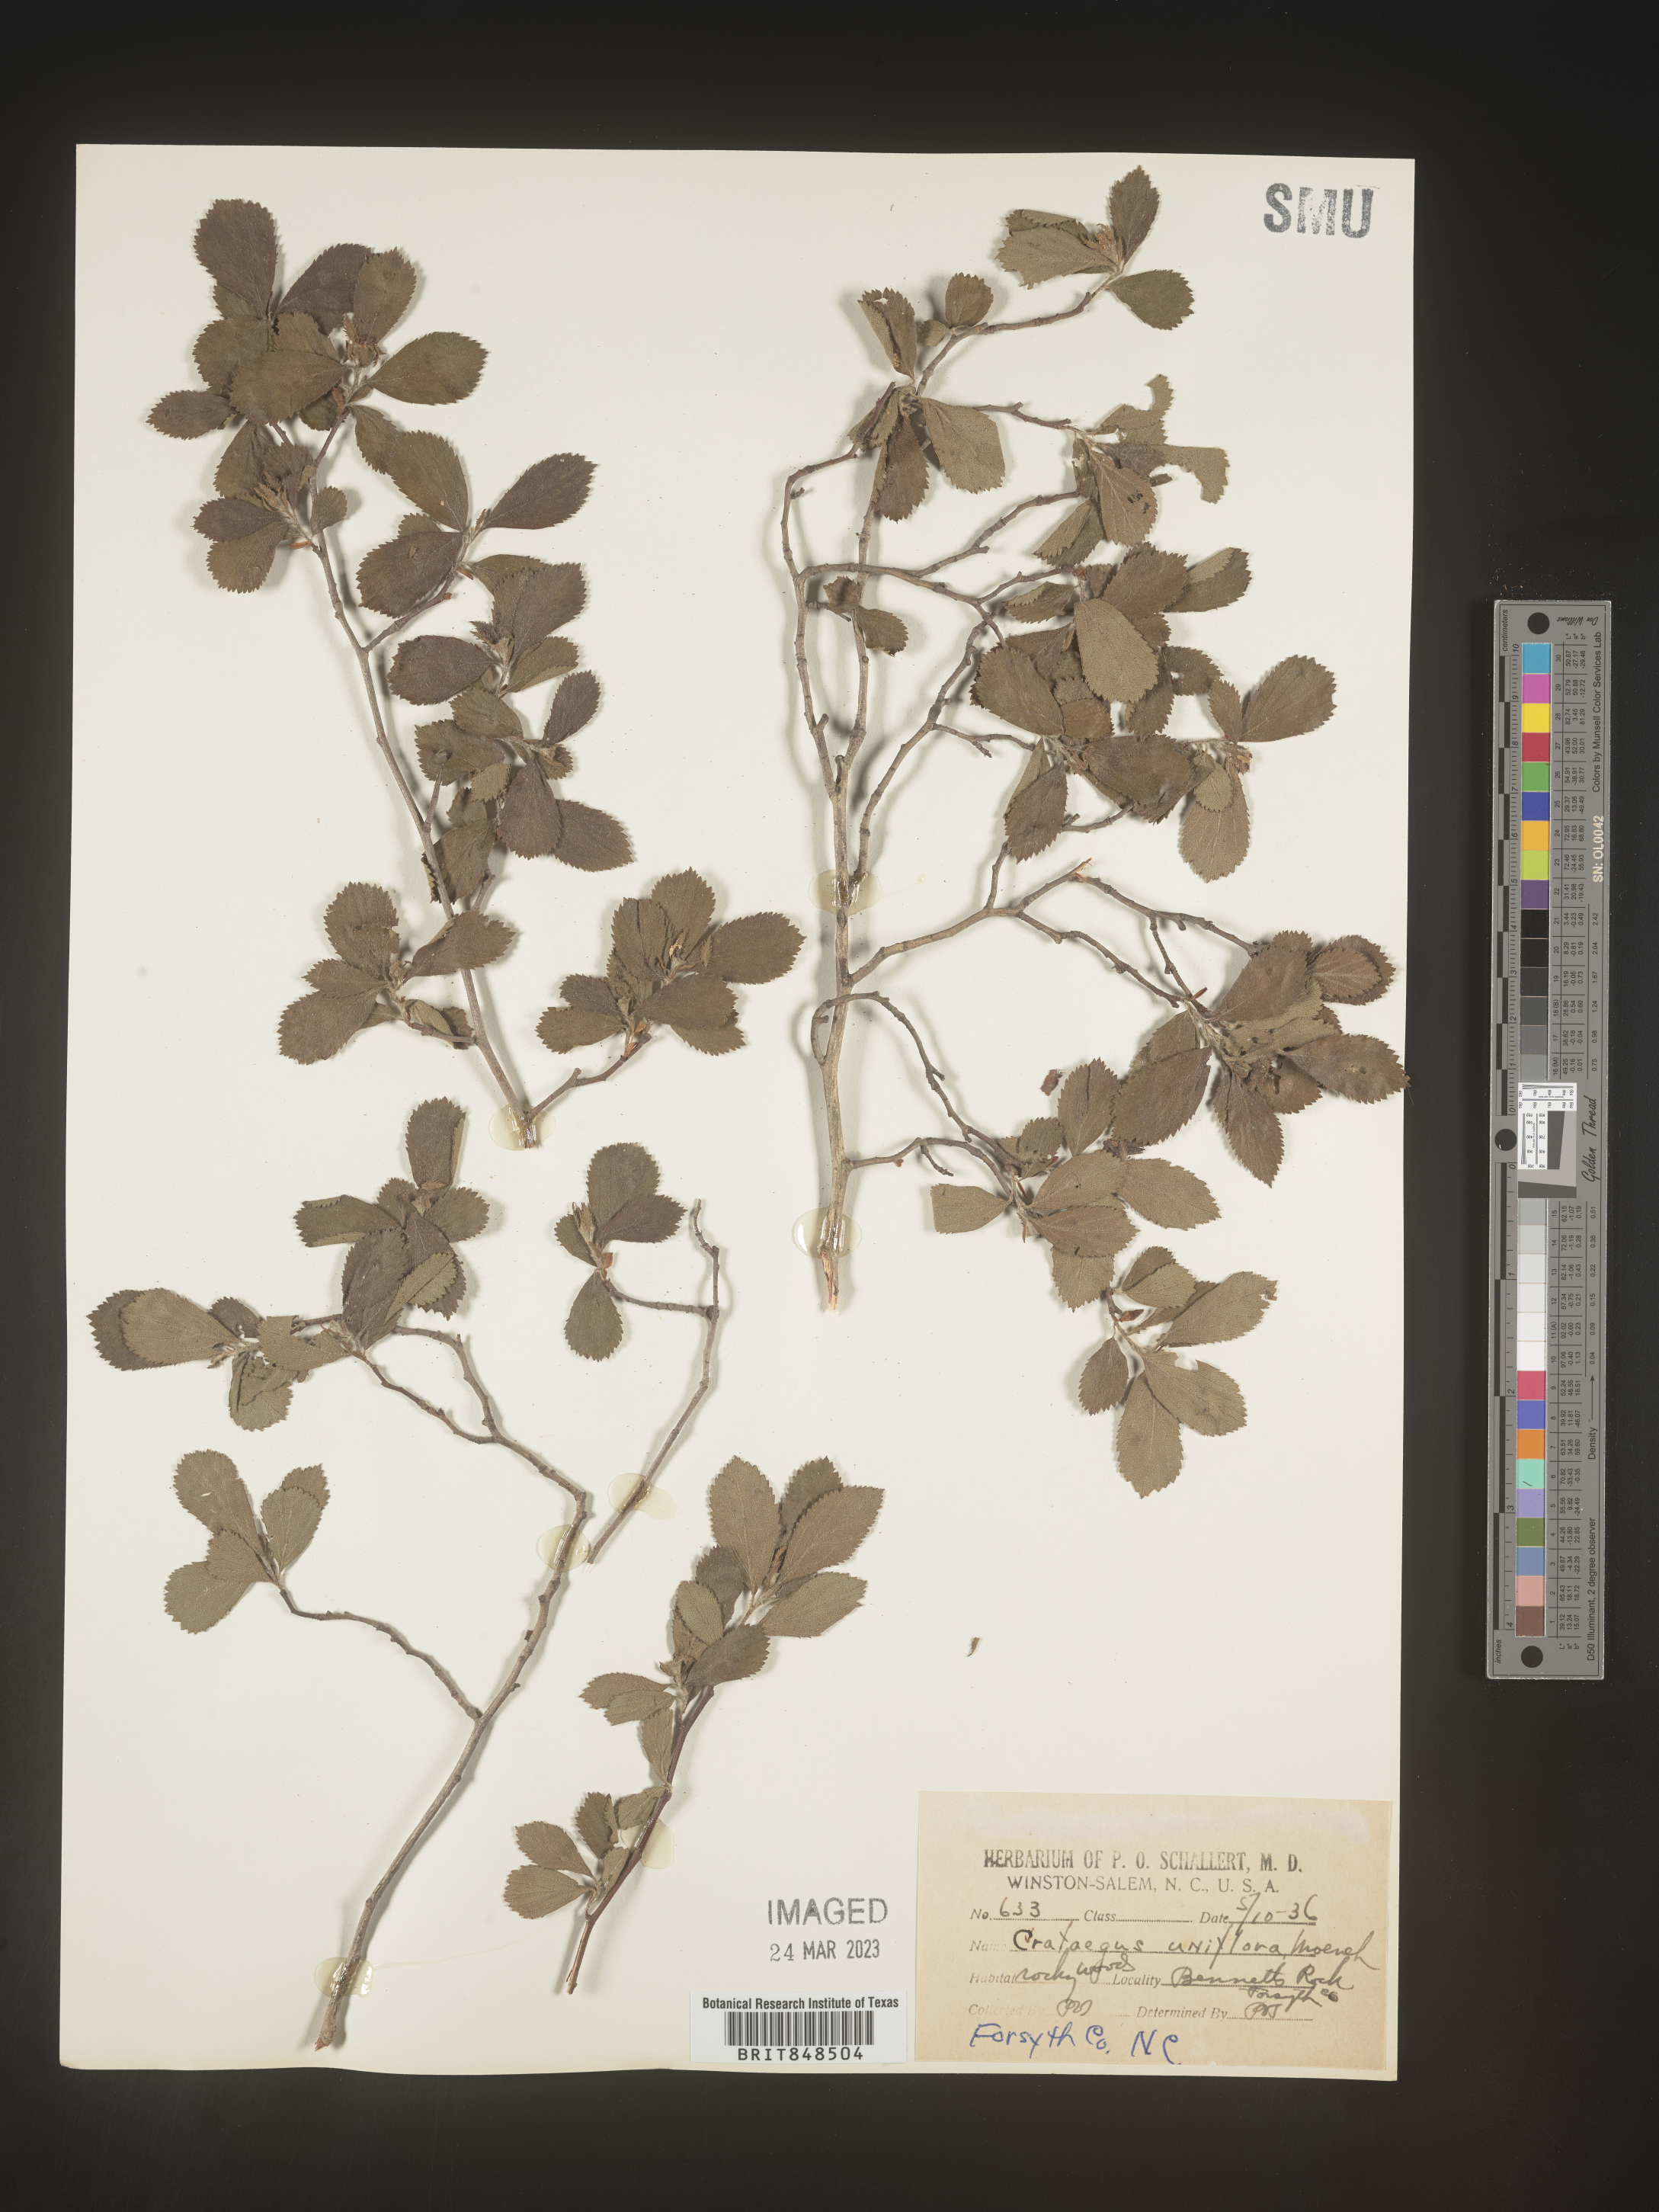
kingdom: Plantae
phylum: Tracheophyta
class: Magnoliopsida
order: Rosales
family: Rosaceae
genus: Crataegus
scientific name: Crataegus uniflora
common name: One-flower hawthorn
